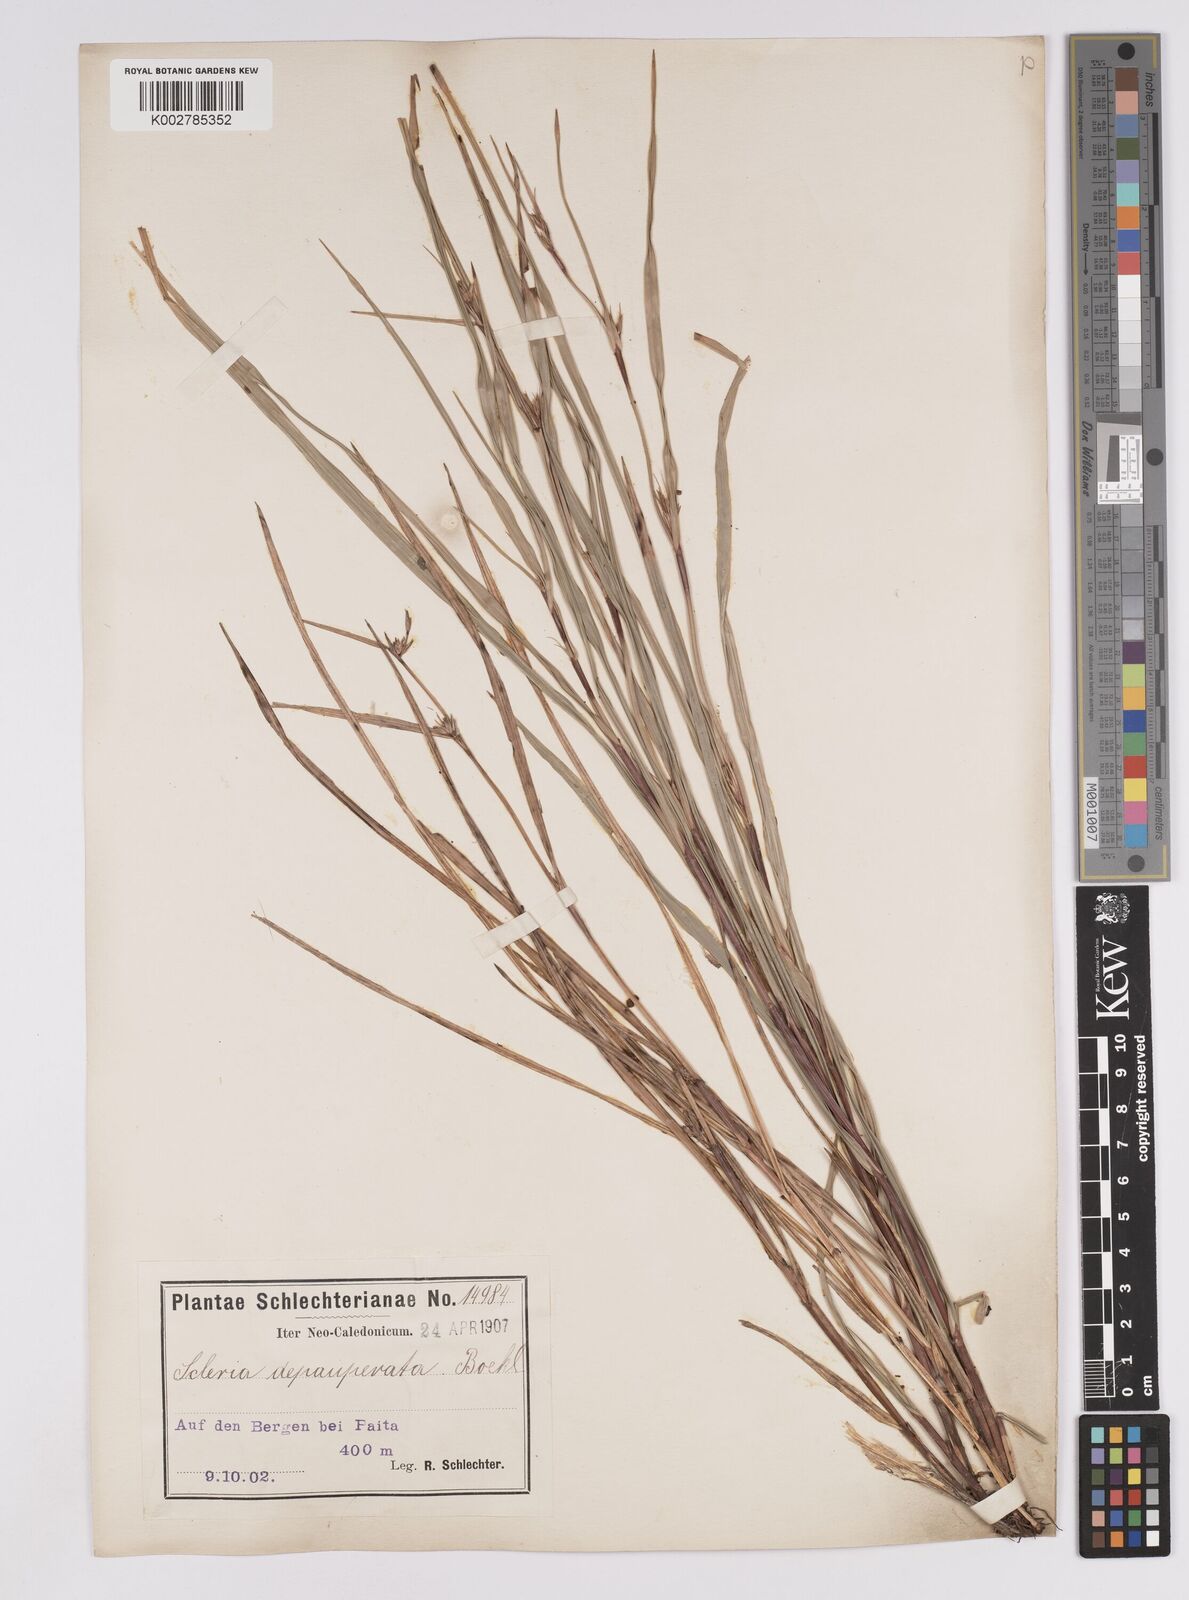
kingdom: Plantae
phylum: Tracheophyta
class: Liliopsida
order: Poales
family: Cyperaceae
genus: Scleria
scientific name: Scleria depauperata
